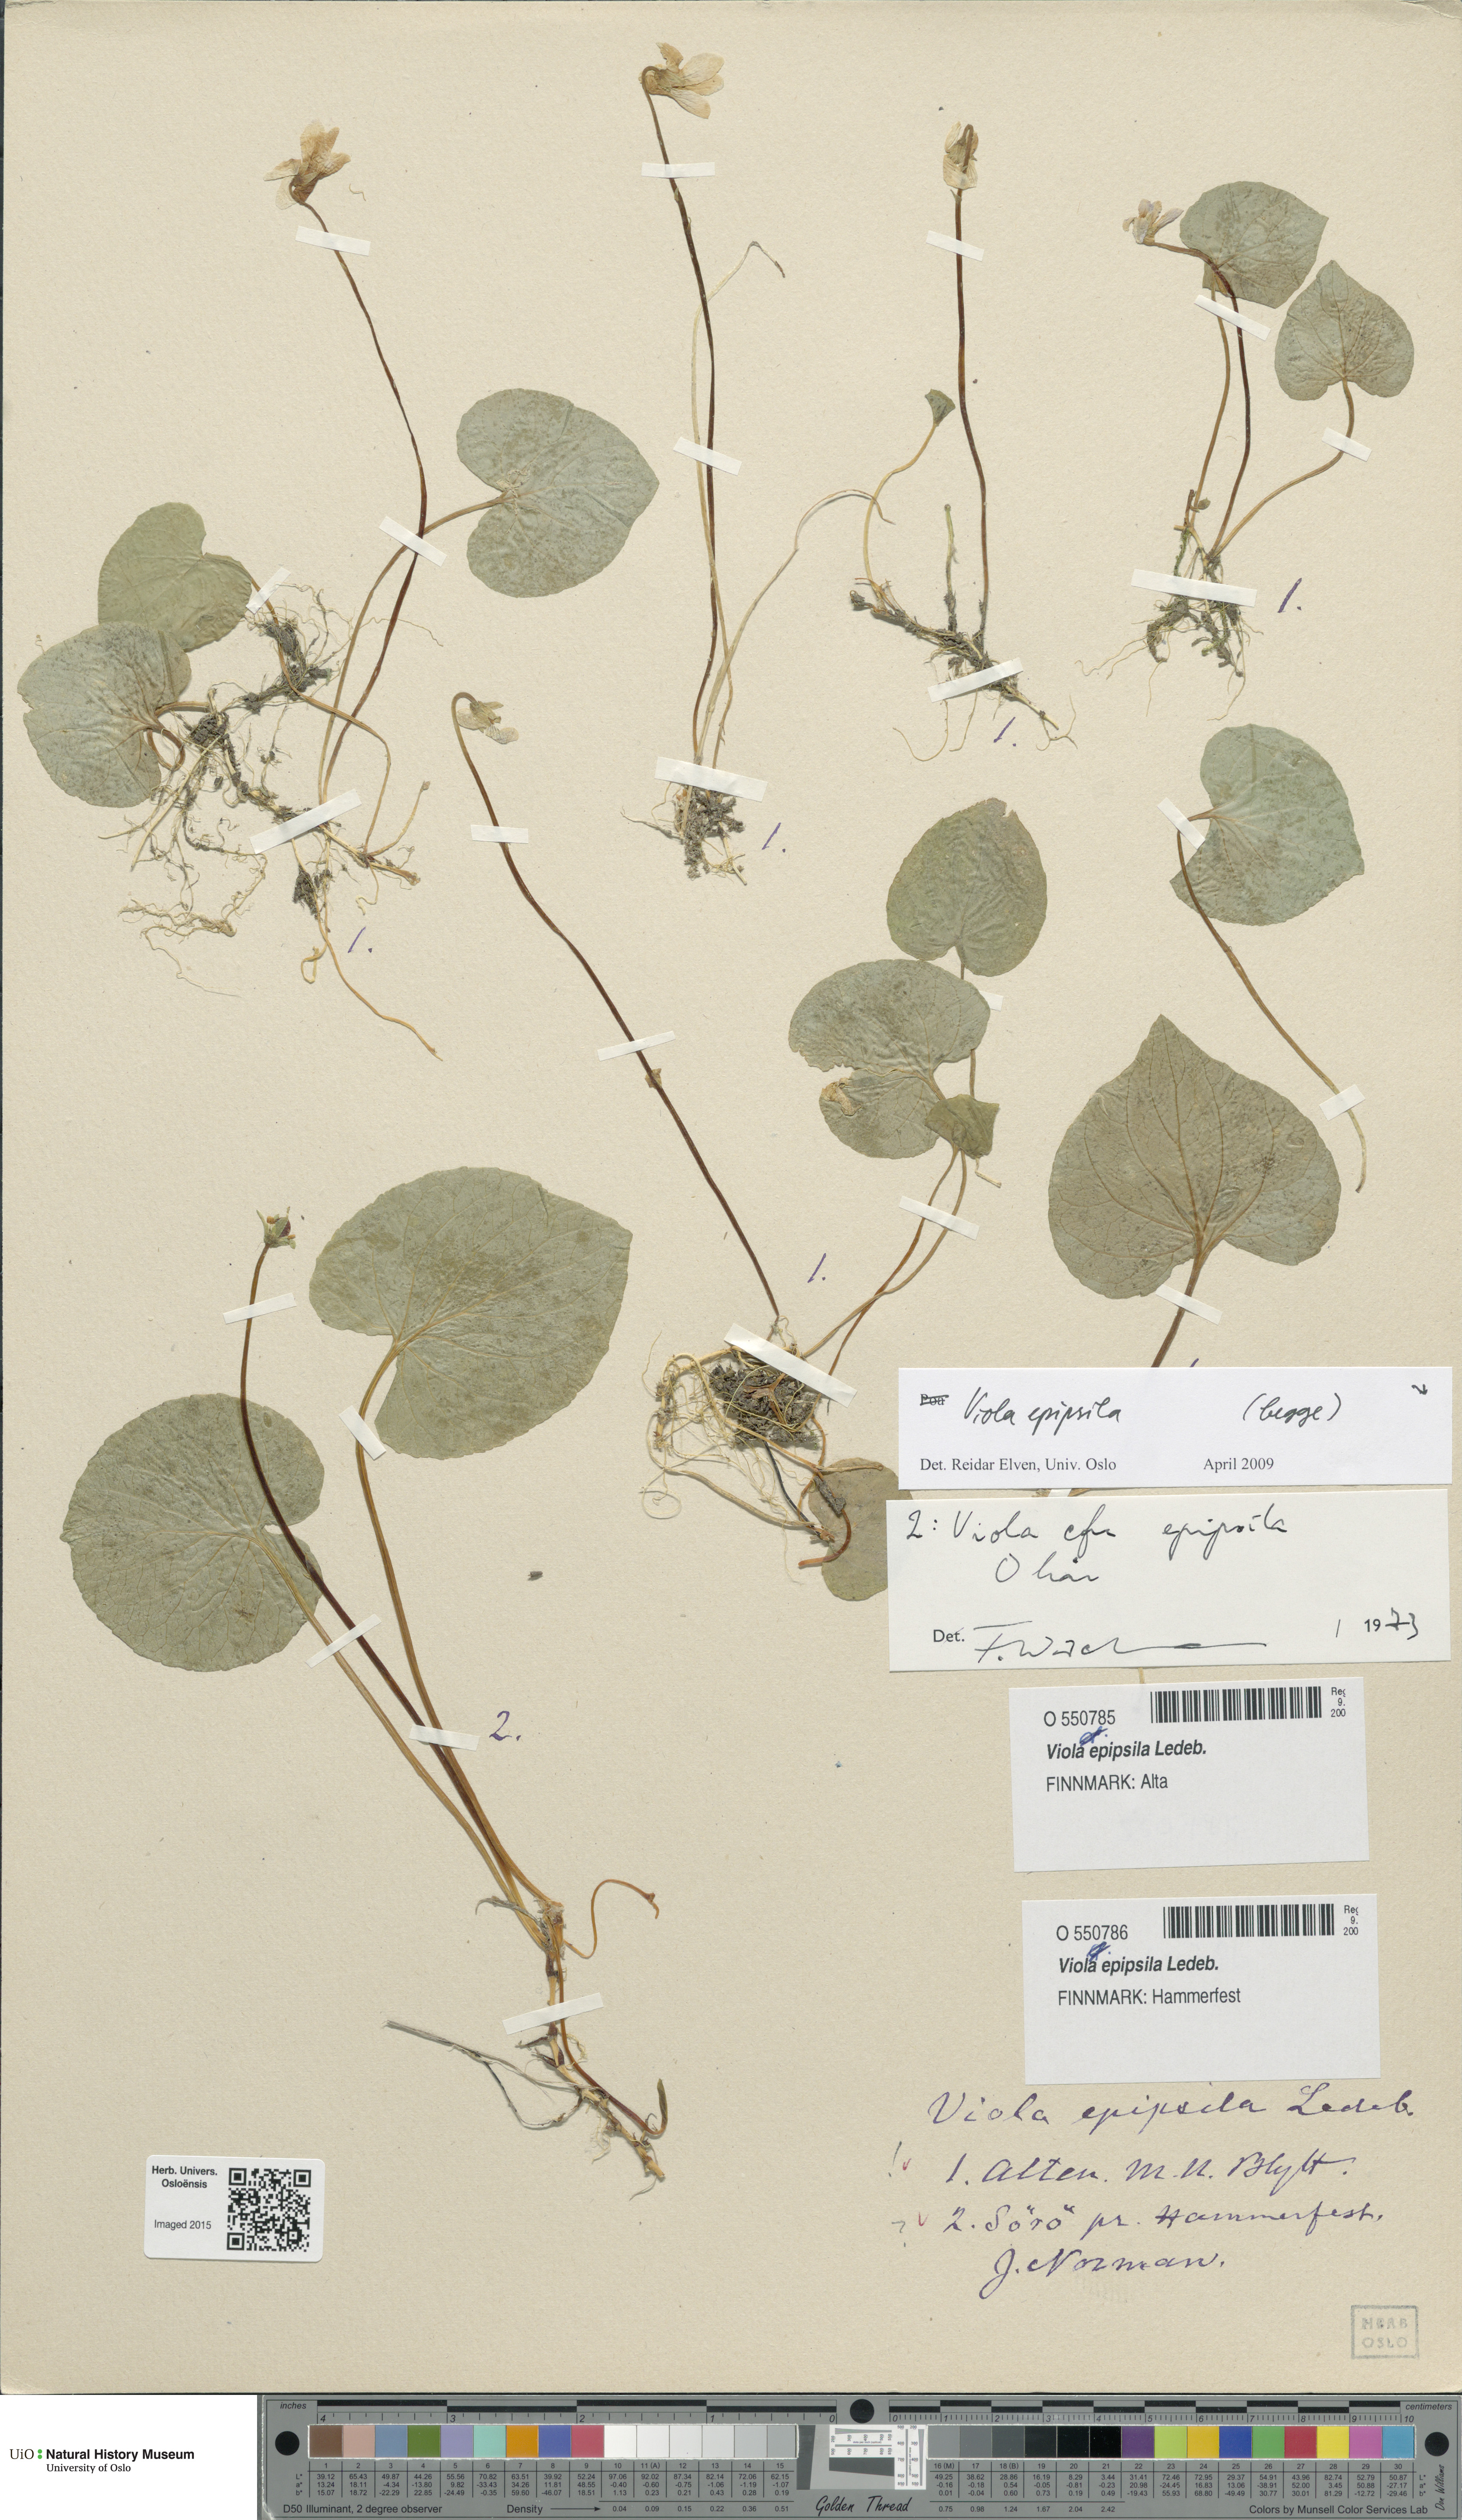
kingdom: Plantae
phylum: Tracheophyta
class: Magnoliopsida
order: Malpighiales
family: Violaceae
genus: Viola
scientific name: Viola epipsila
